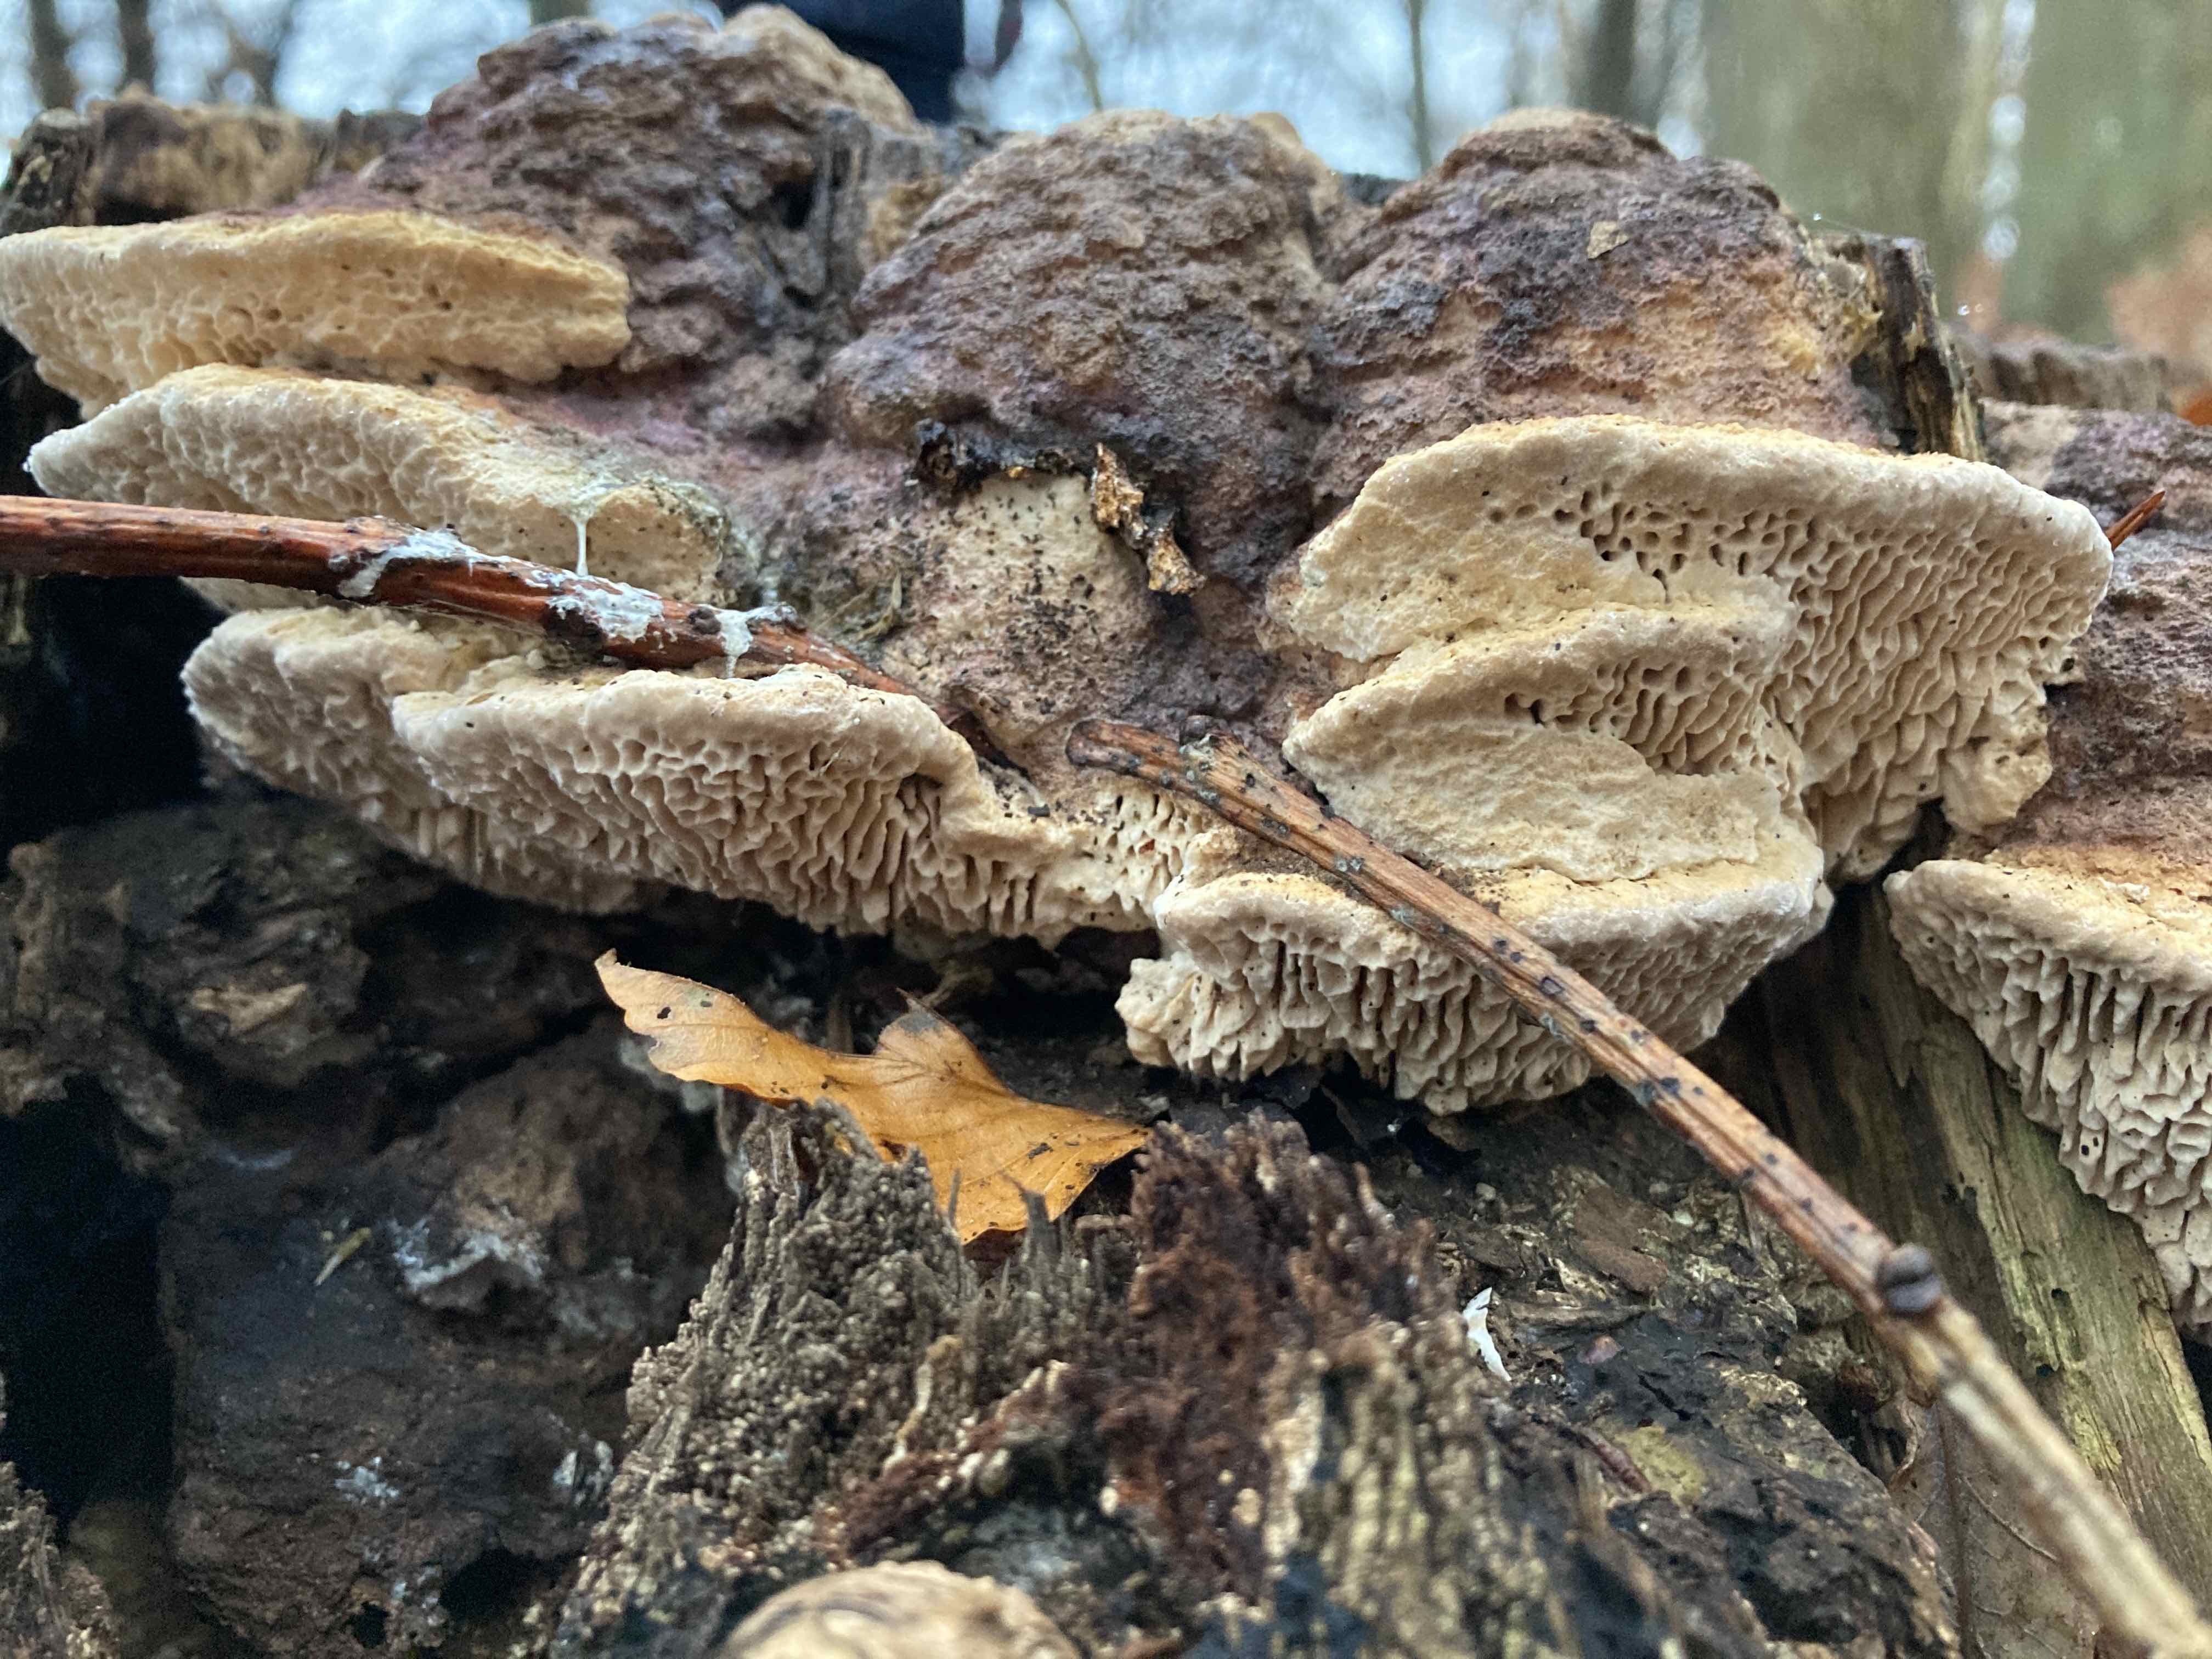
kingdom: Fungi
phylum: Basidiomycota
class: Agaricomycetes
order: Polyporales
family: Fomitopsidaceae
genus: Daedalea
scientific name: Daedalea quercina
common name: ege-labyrintsvamp
